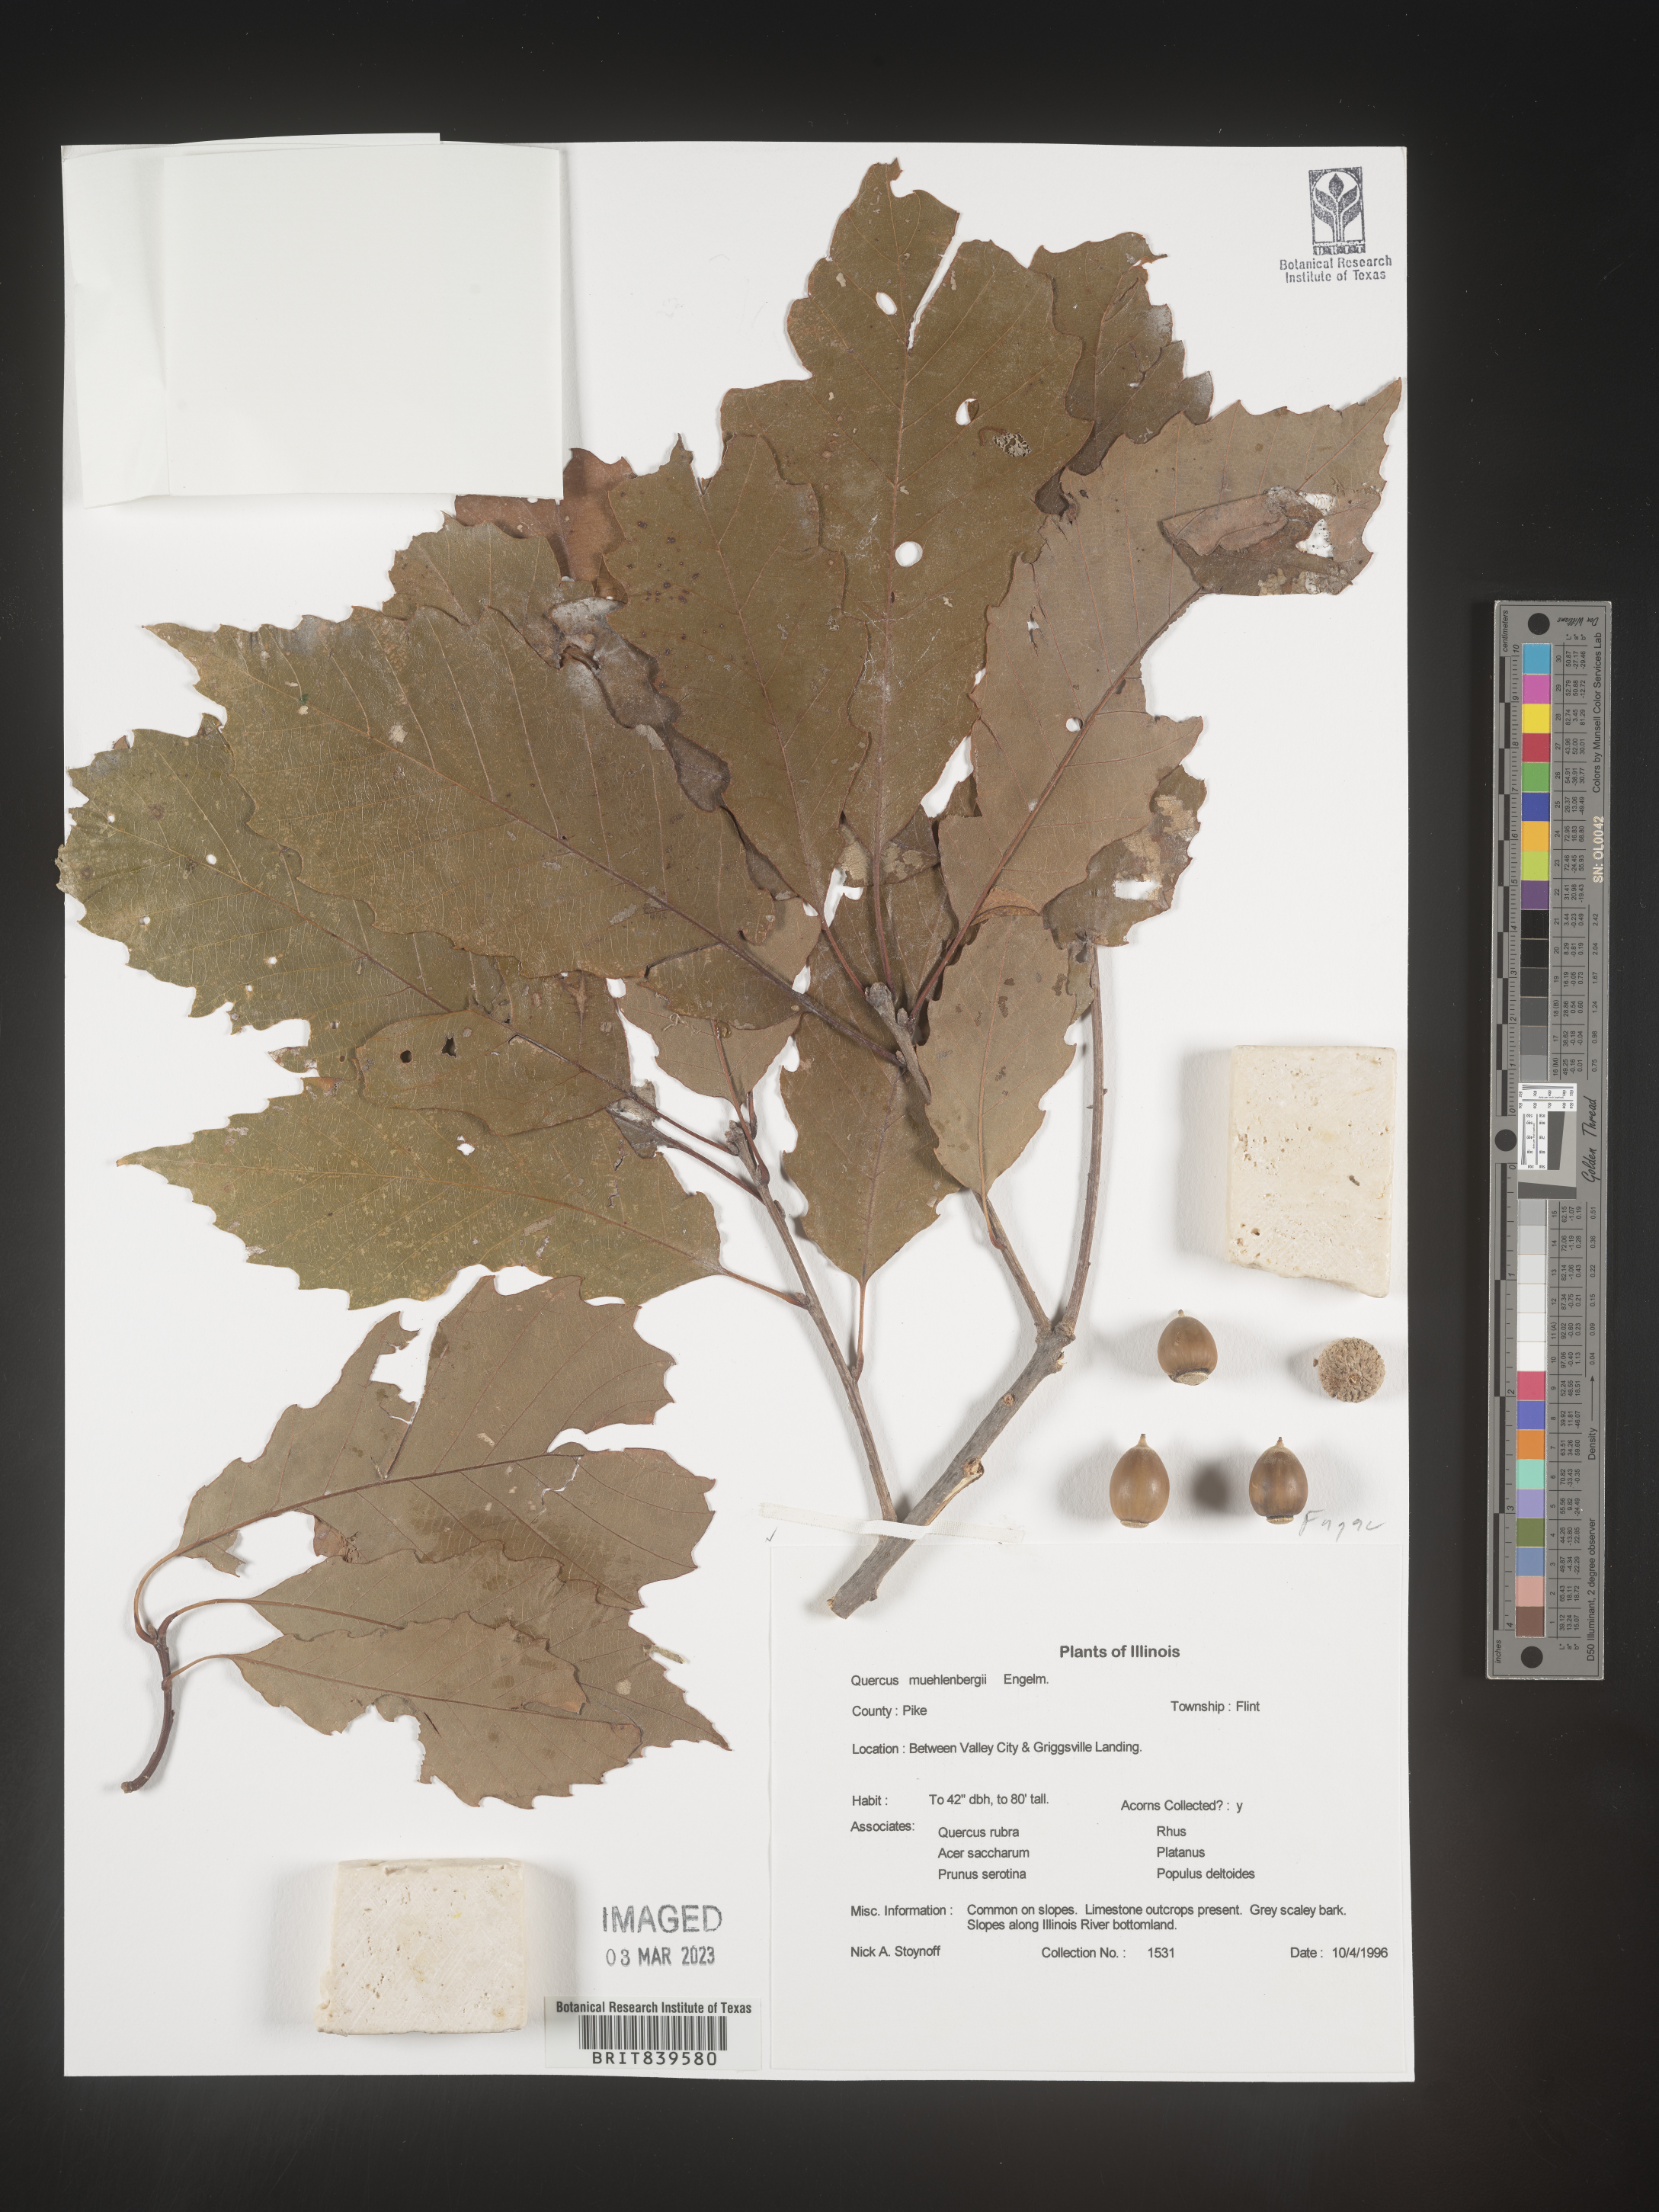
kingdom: Plantae
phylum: Tracheophyta
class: Magnoliopsida
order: Fagales
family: Fagaceae
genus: Quercus
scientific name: Quercus muehlenbergii
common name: Chinkapin oak
